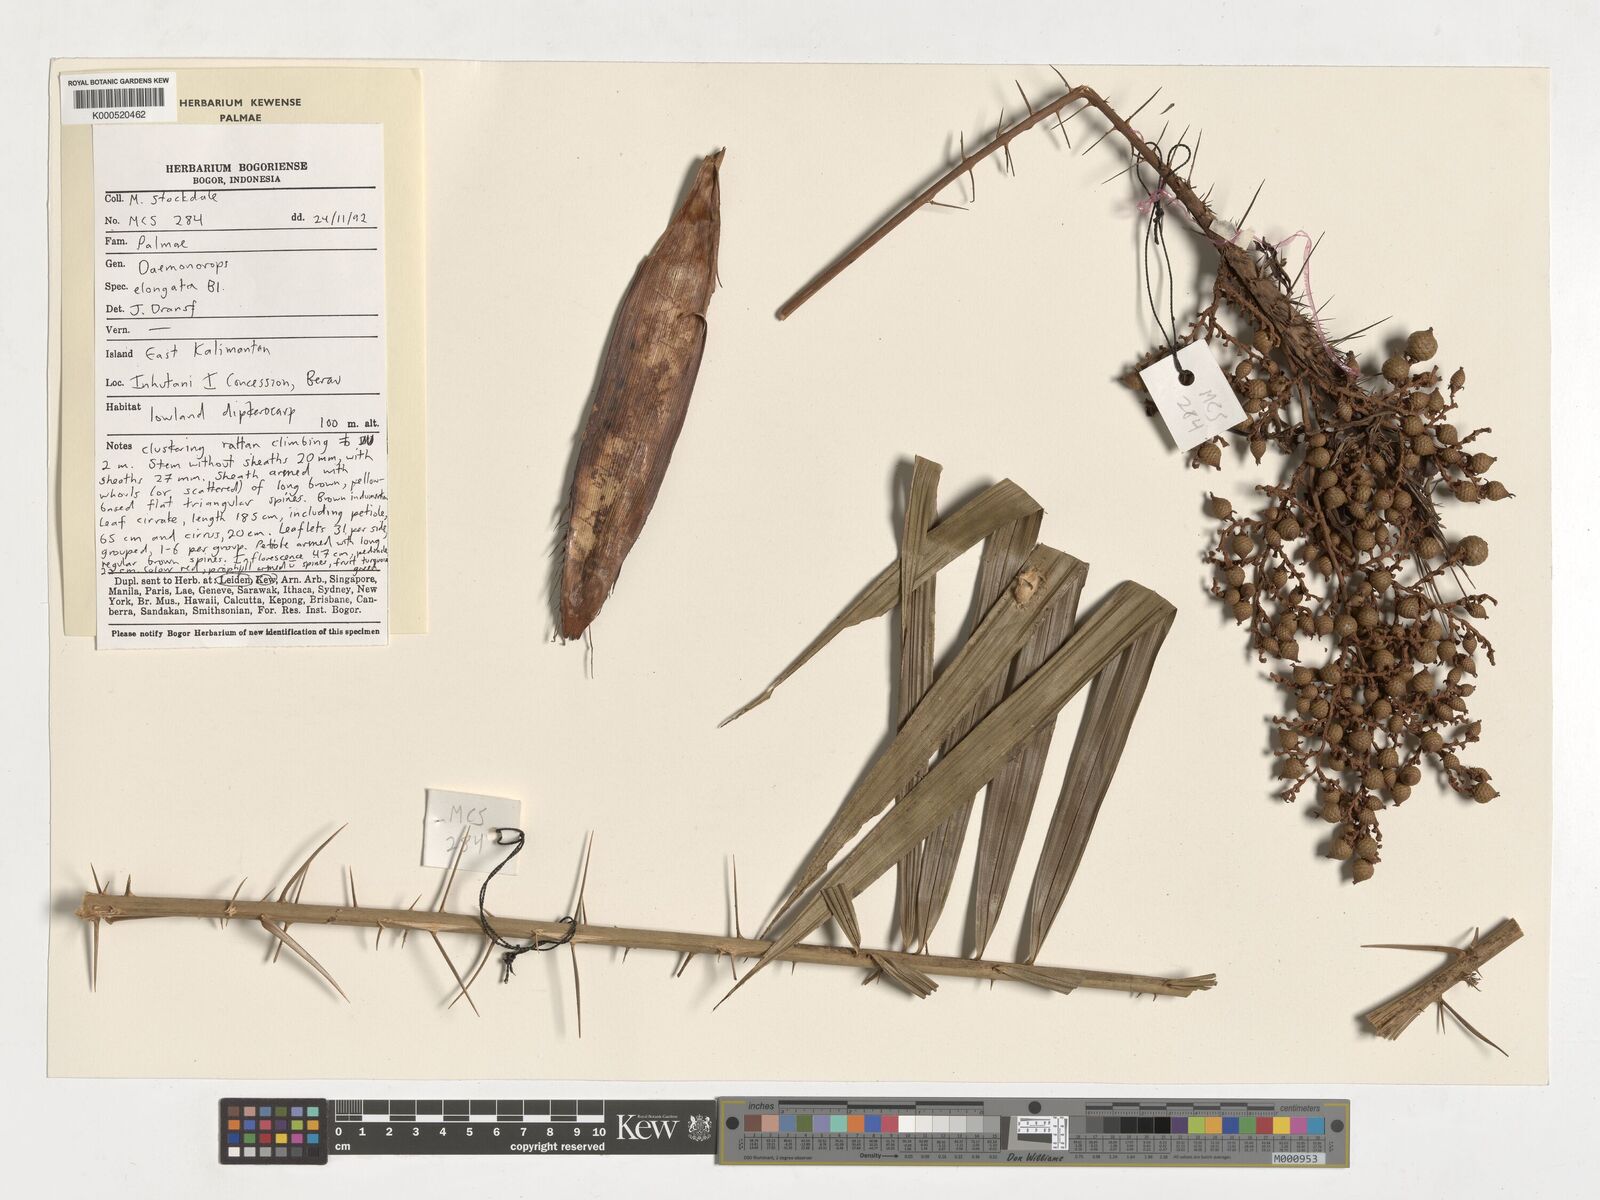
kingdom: Plantae
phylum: Tracheophyta
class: Liliopsida
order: Arecales
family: Arecaceae
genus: Calamus
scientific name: Calamus oblongus
